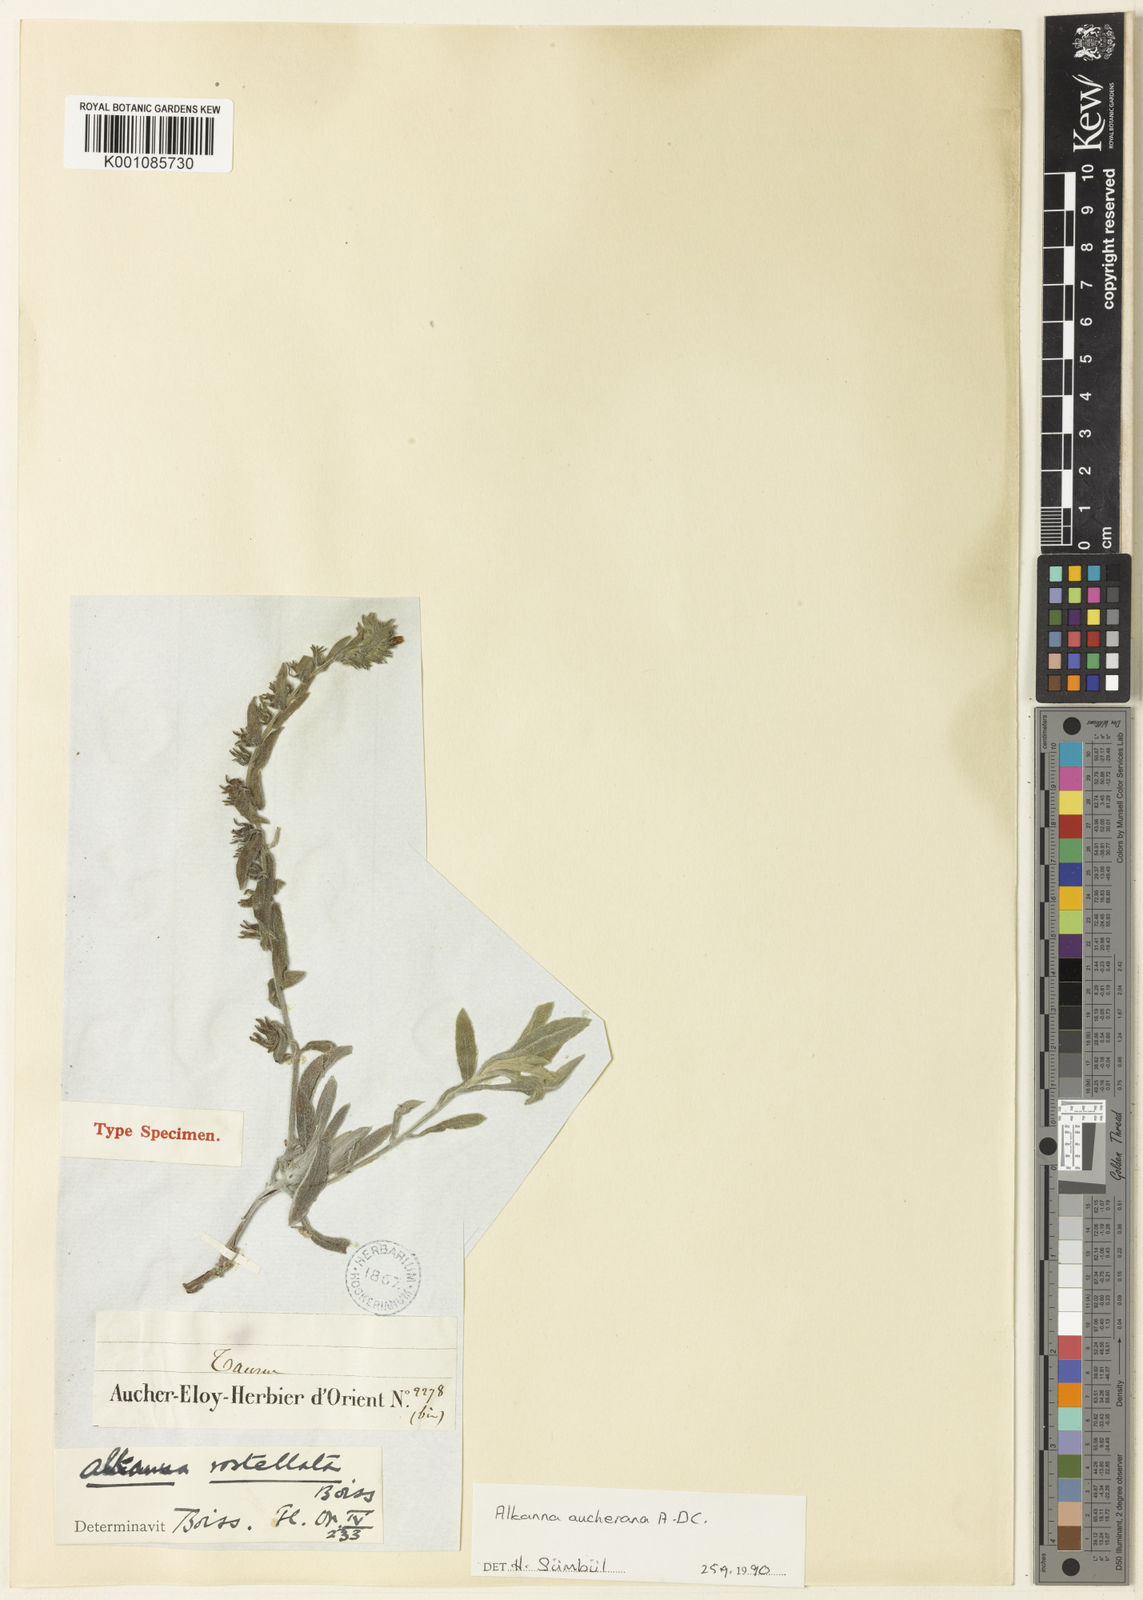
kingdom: Plantae
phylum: Tracheophyta
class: Magnoliopsida
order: Boraginales
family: Boraginaceae
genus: Alkanna
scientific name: Alkanna aucheriana
